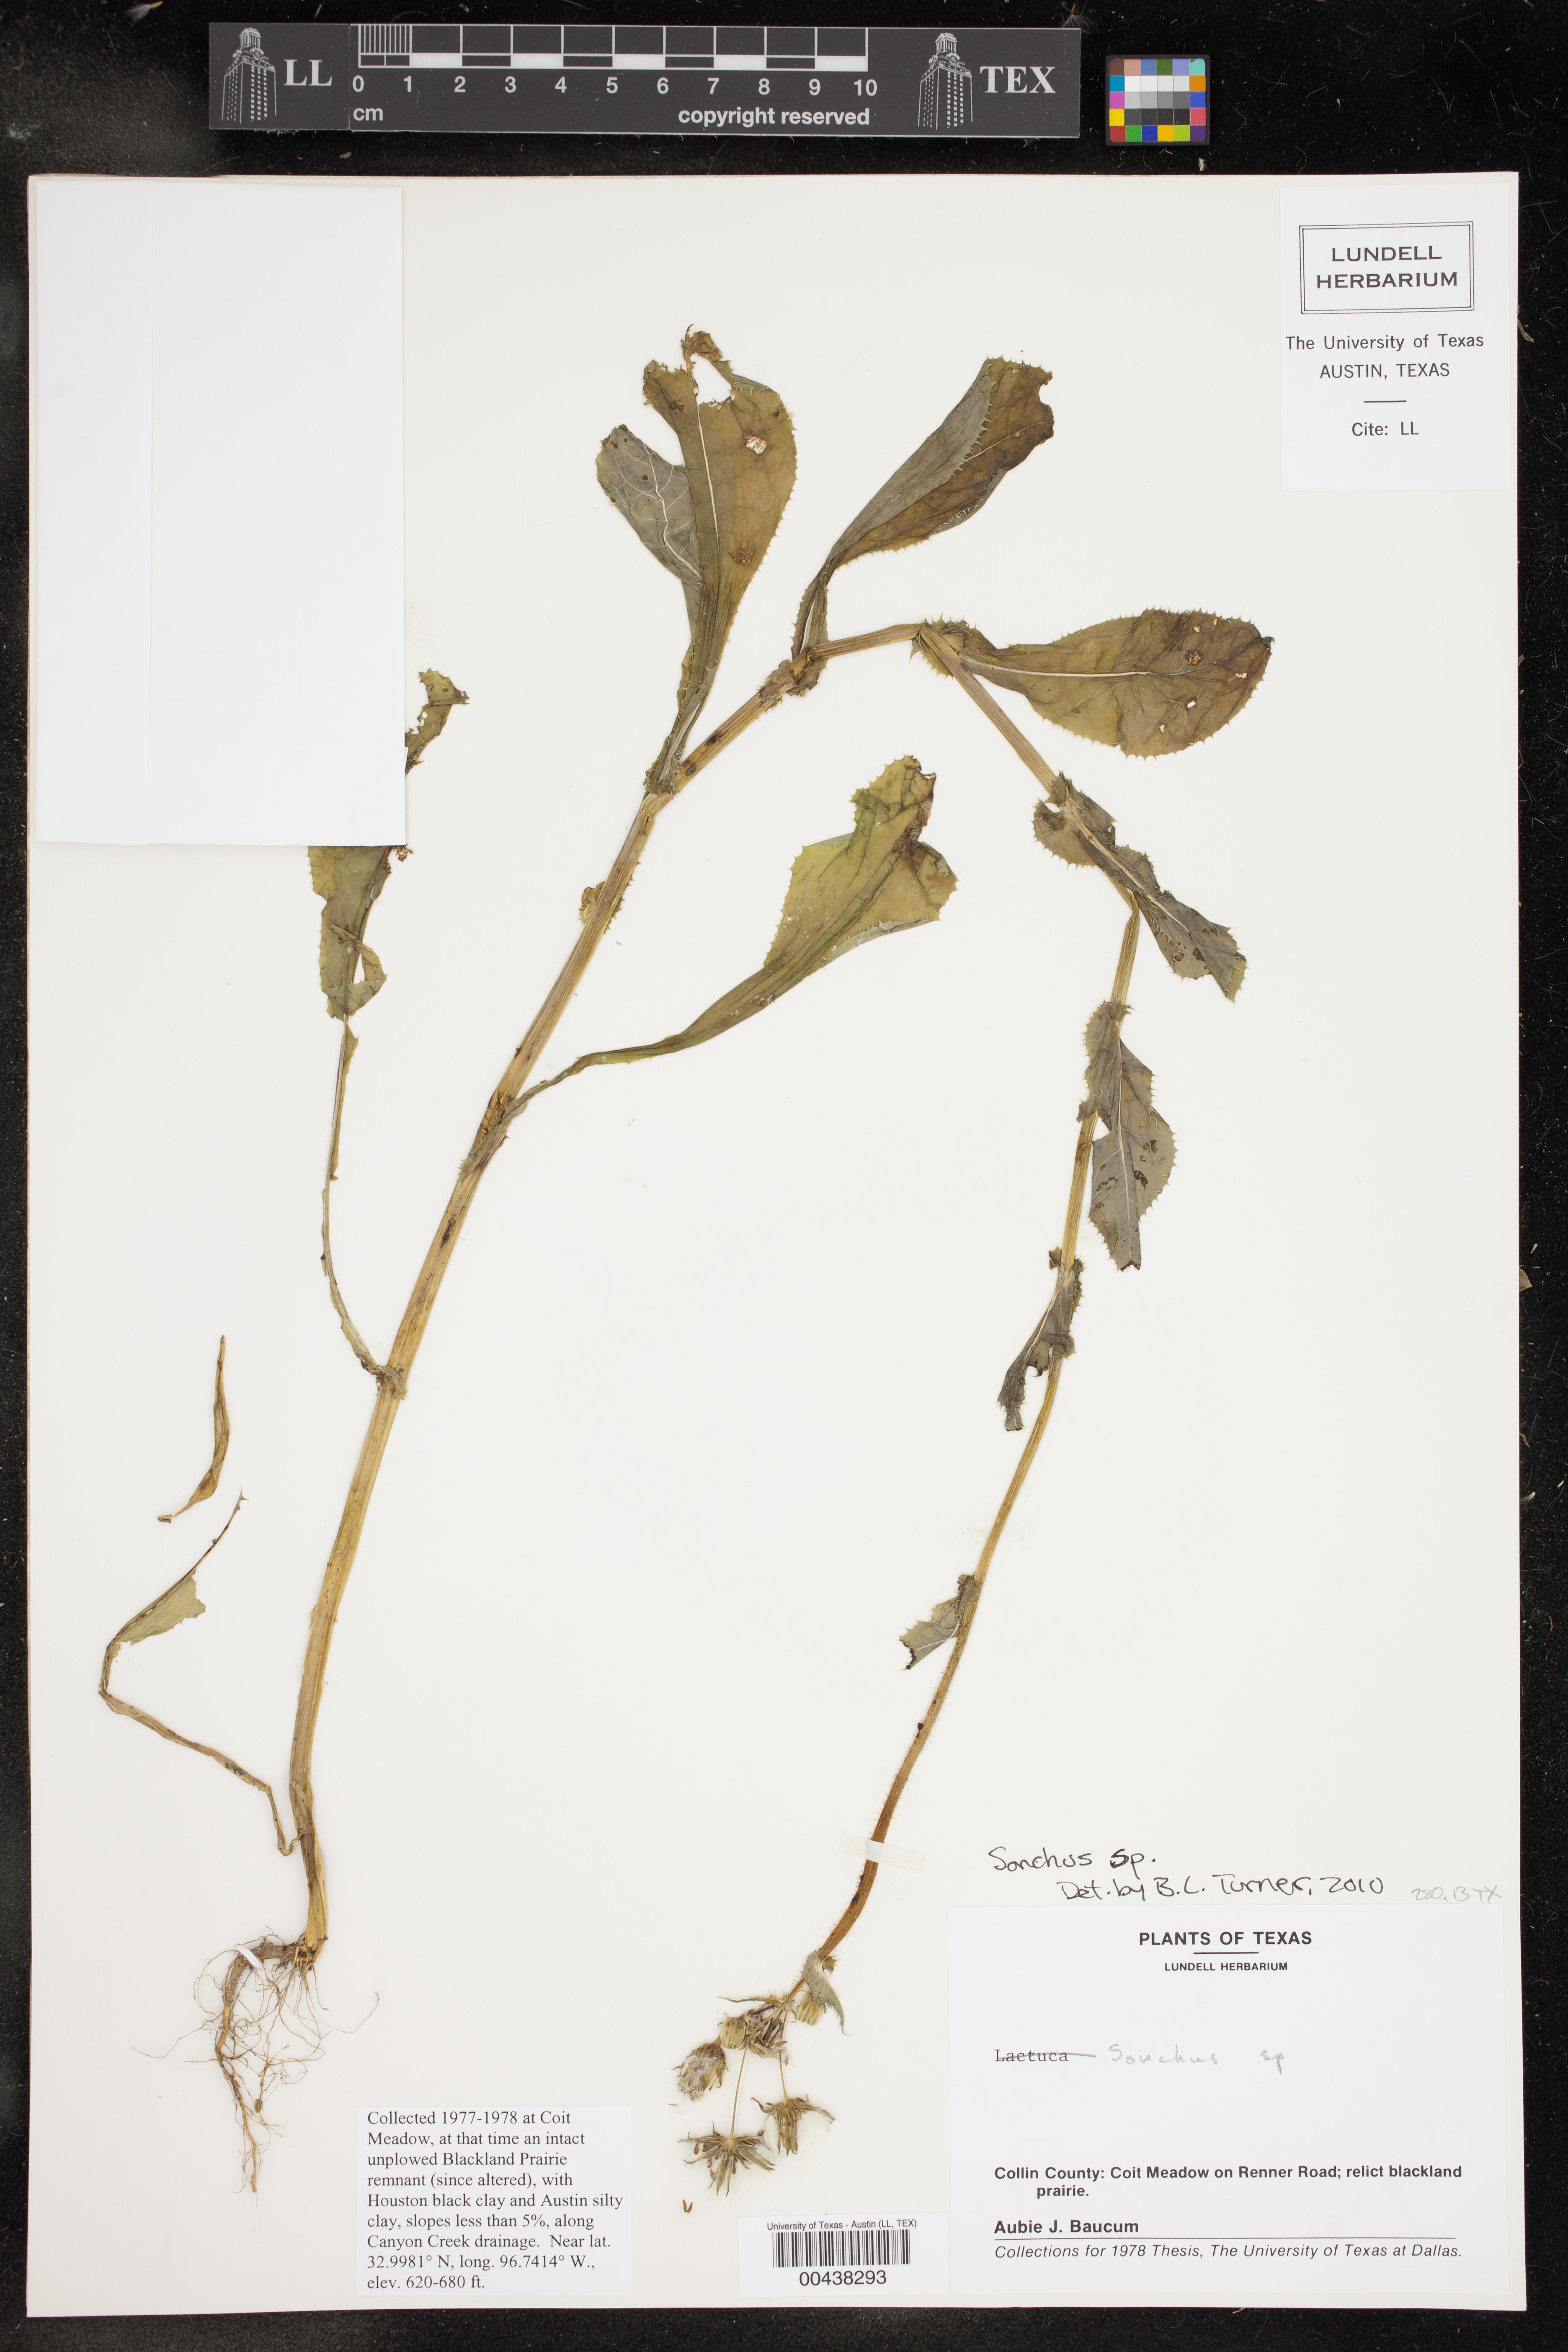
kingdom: Plantae
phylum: Tracheophyta
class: Magnoliopsida
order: Asterales
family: Asteraceae
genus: Sonchus
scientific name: Sonchus
